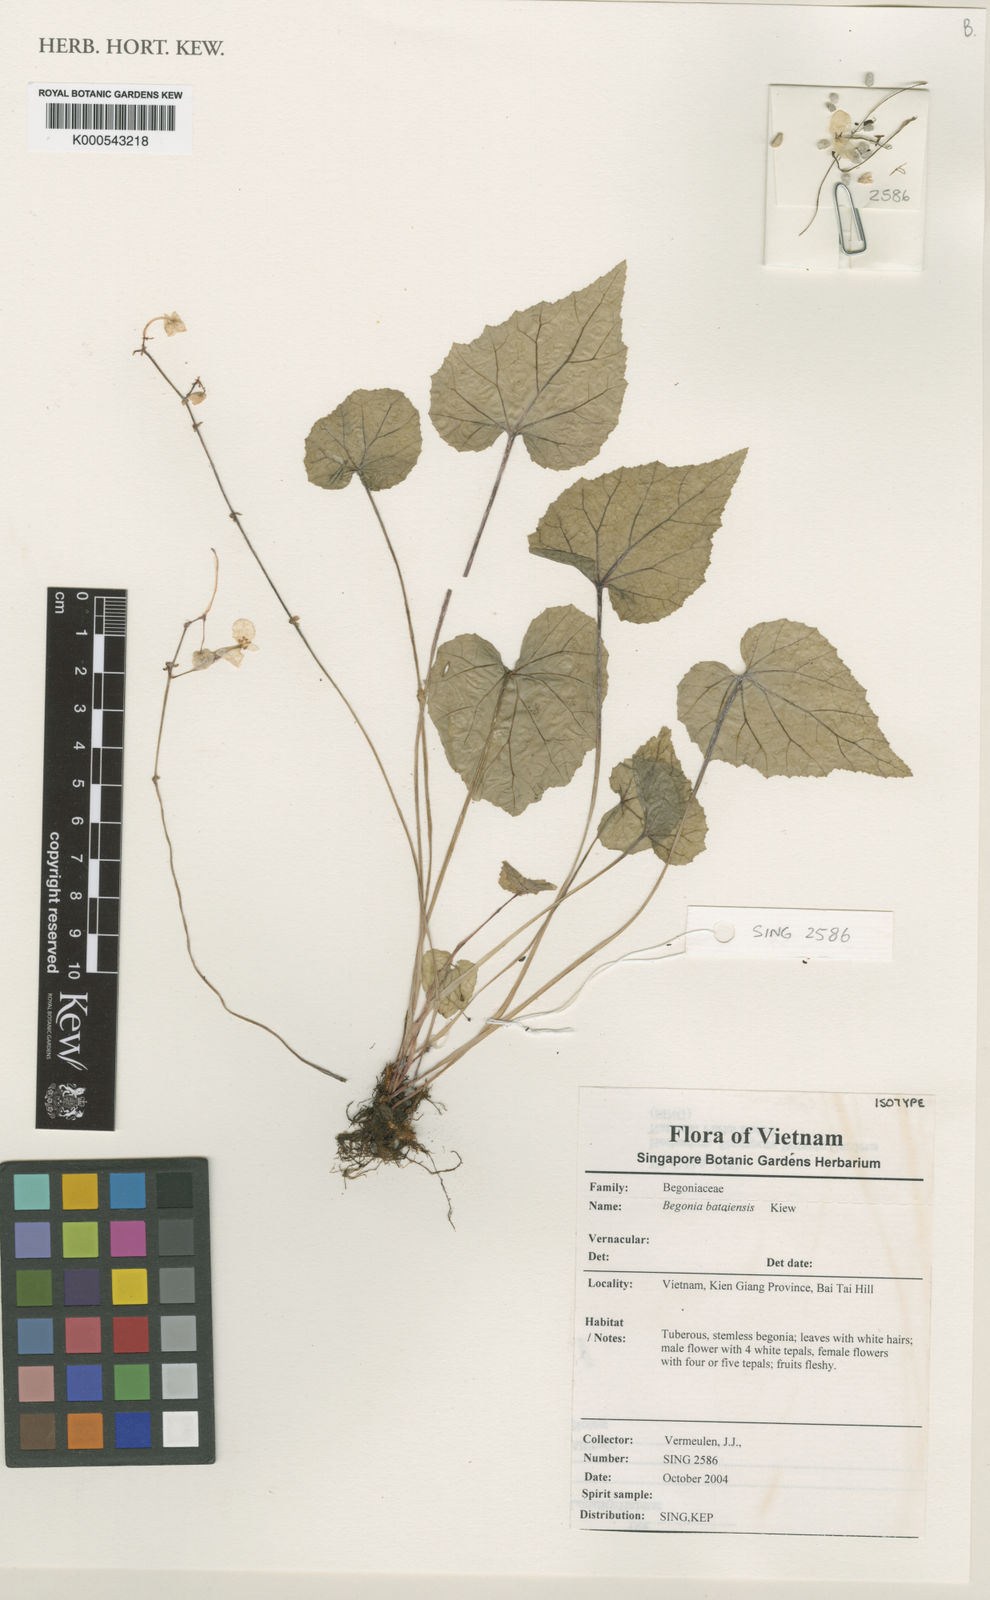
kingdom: Plantae
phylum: Tracheophyta
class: Magnoliopsida
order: Cucurbitales
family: Begoniaceae
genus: Begonia
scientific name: Begonia bataiensis
